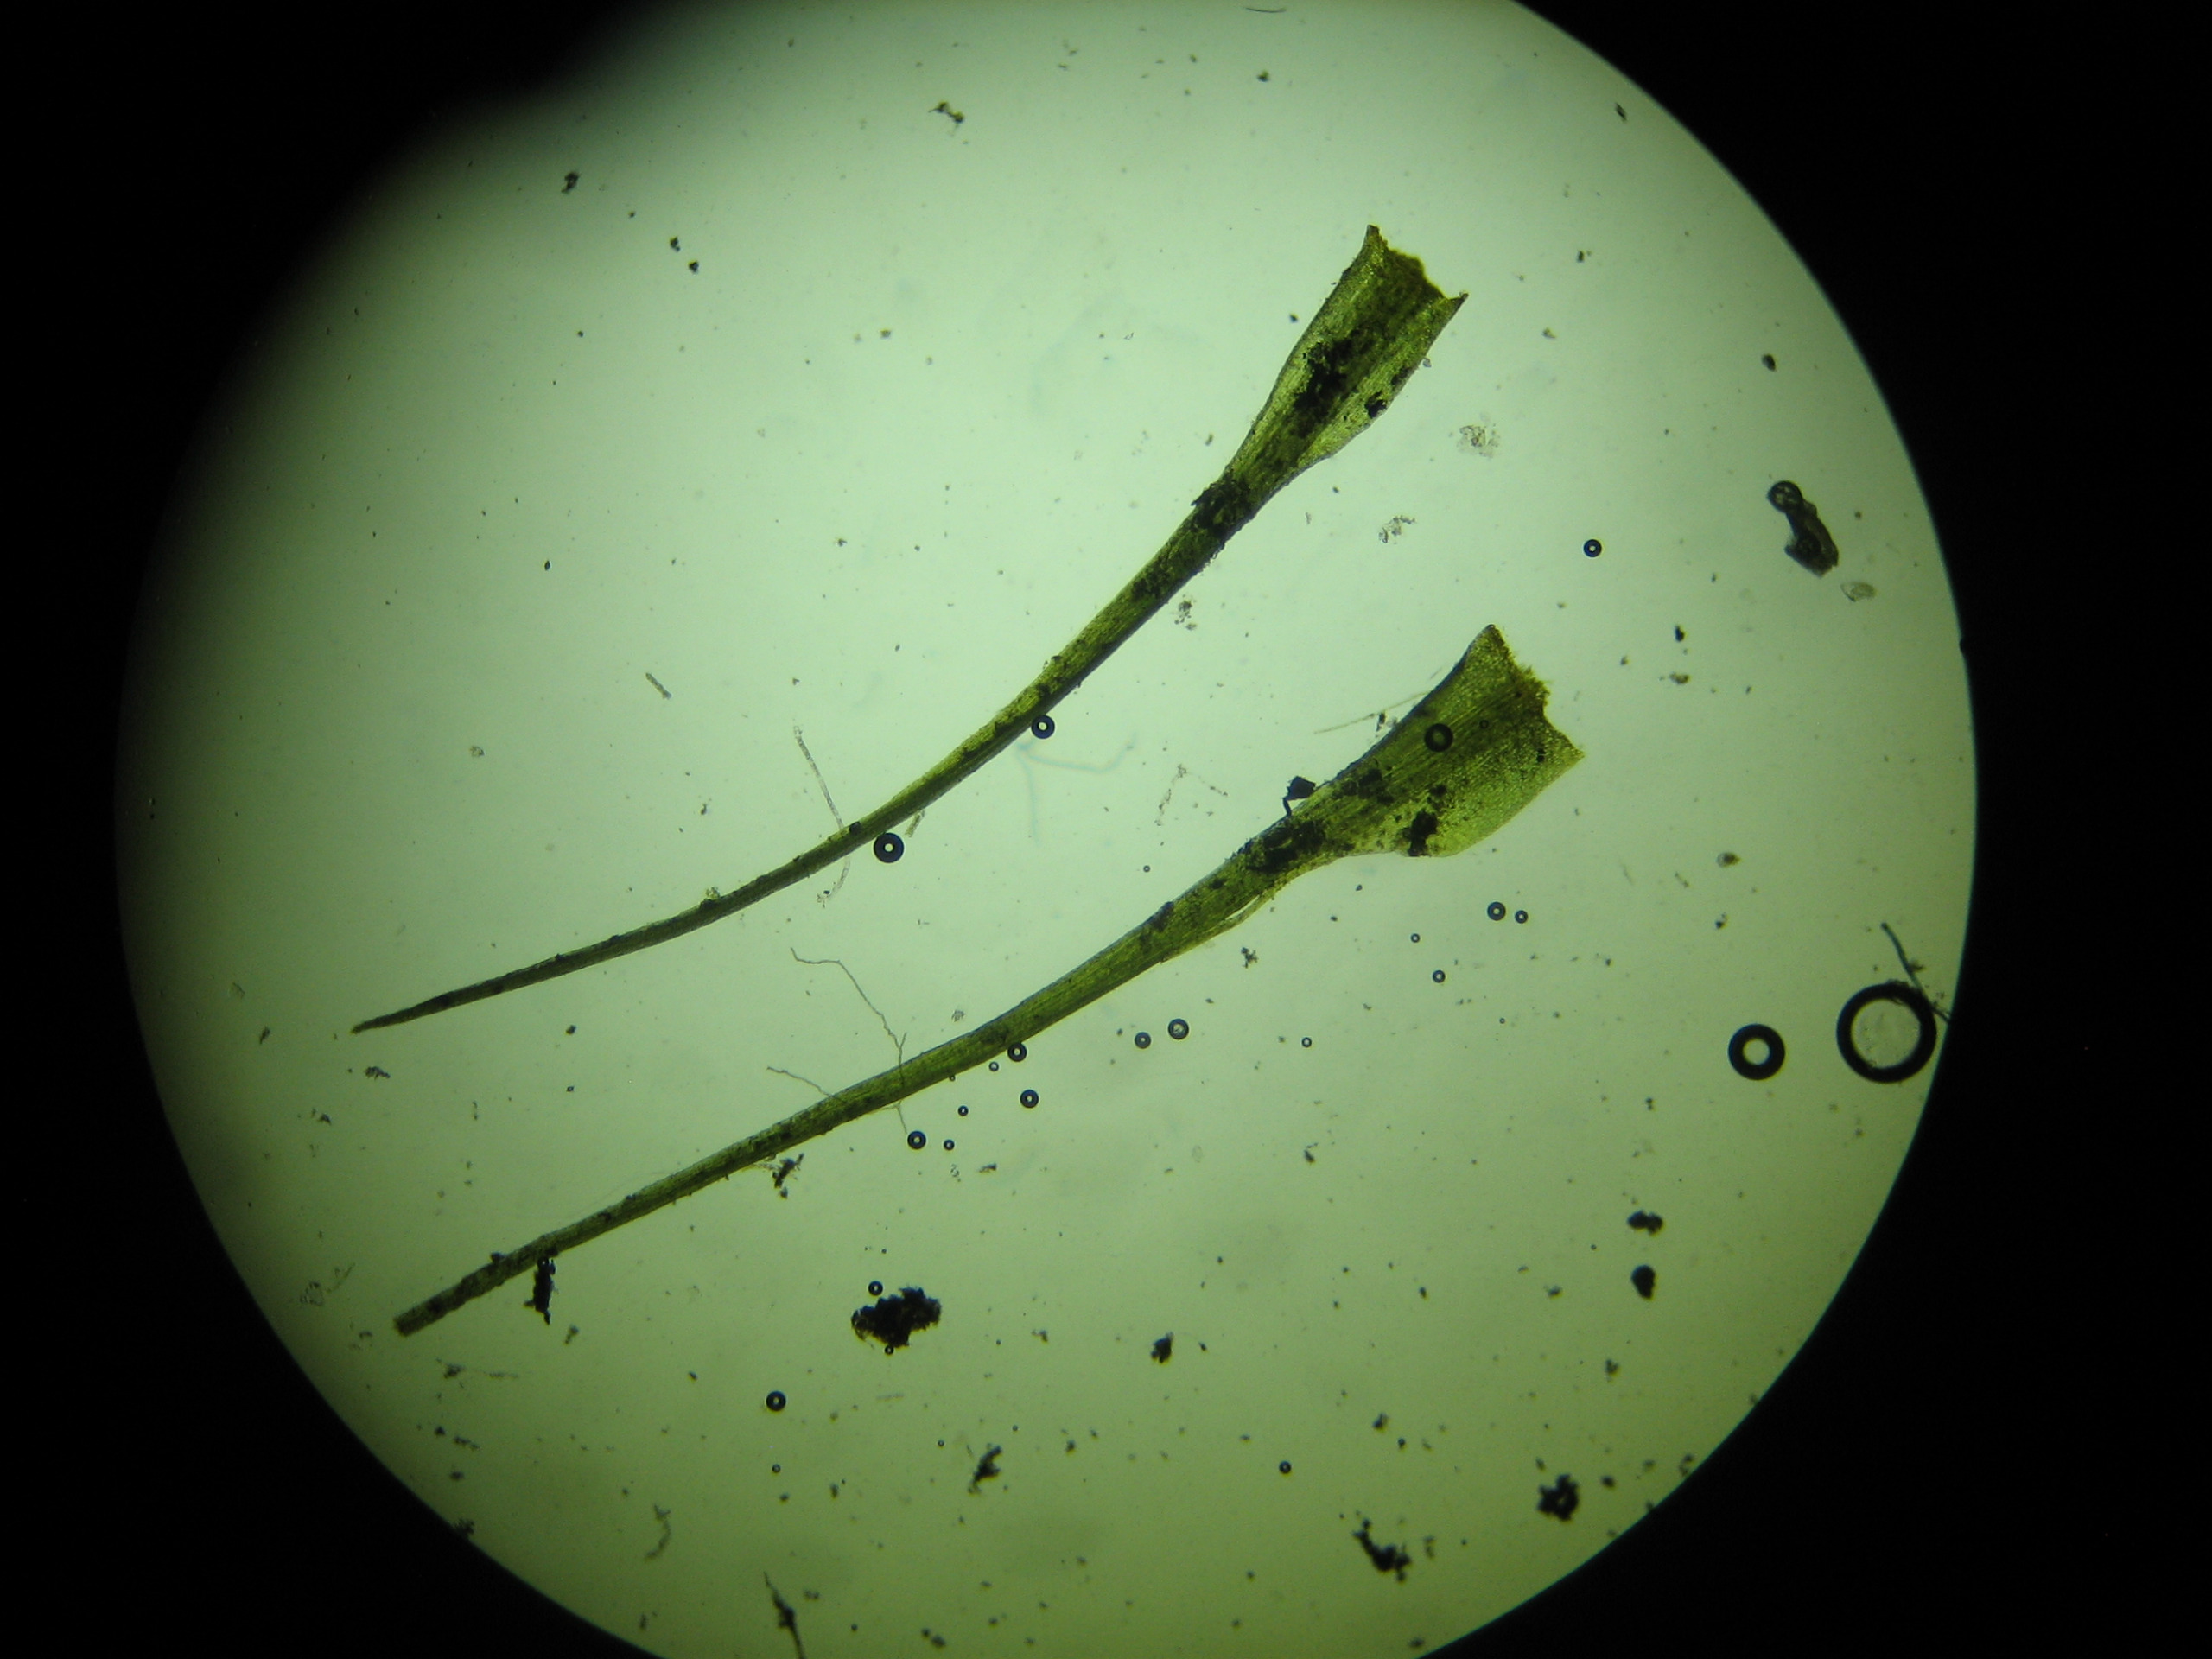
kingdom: Plantae
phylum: Bryophyta
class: Bryopsida
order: Dicranales
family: Dicranellaceae
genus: Dicranella
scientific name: Dicranella heteromalla
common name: Almindelig fløjlsmos
